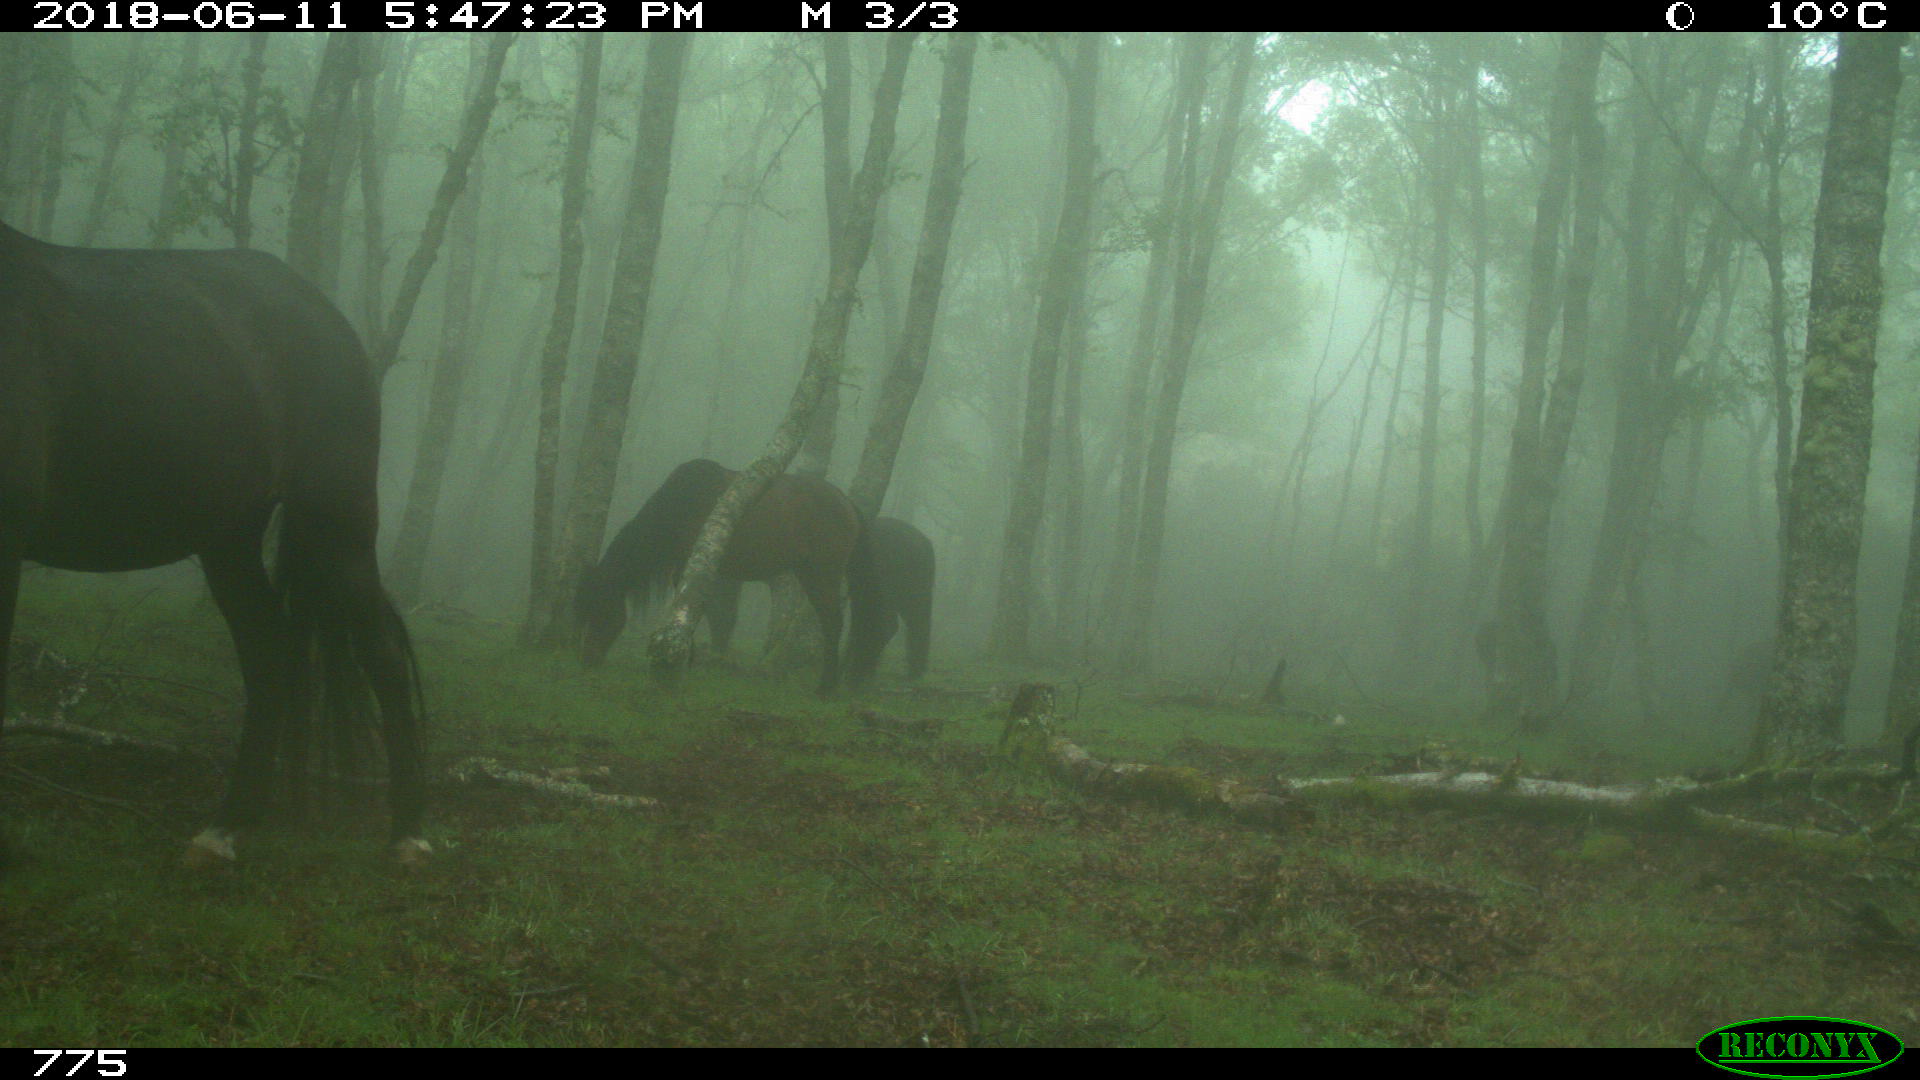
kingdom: Animalia
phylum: Chordata
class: Mammalia
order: Perissodactyla
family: Equidae
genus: Equus
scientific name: Equus caballus
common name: Horse
